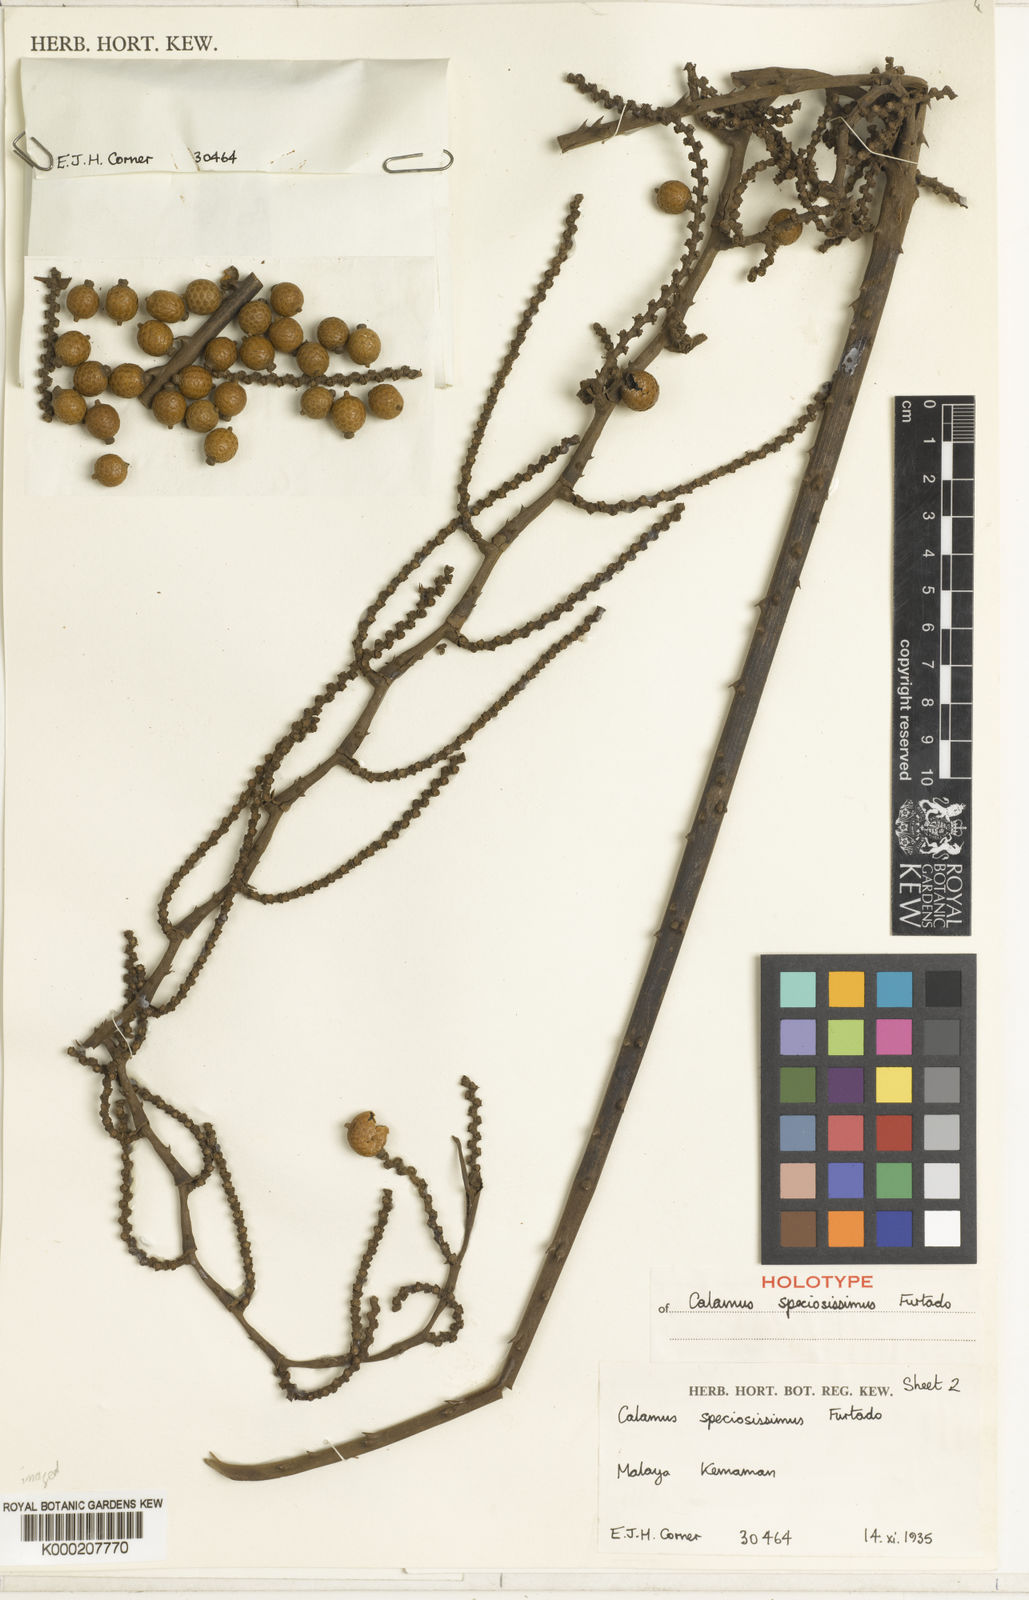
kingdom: Plantae
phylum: Tracheophyta
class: Liliopsida
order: Arecales
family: Arecaceae
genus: Calamus
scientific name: Calamus micranthus
